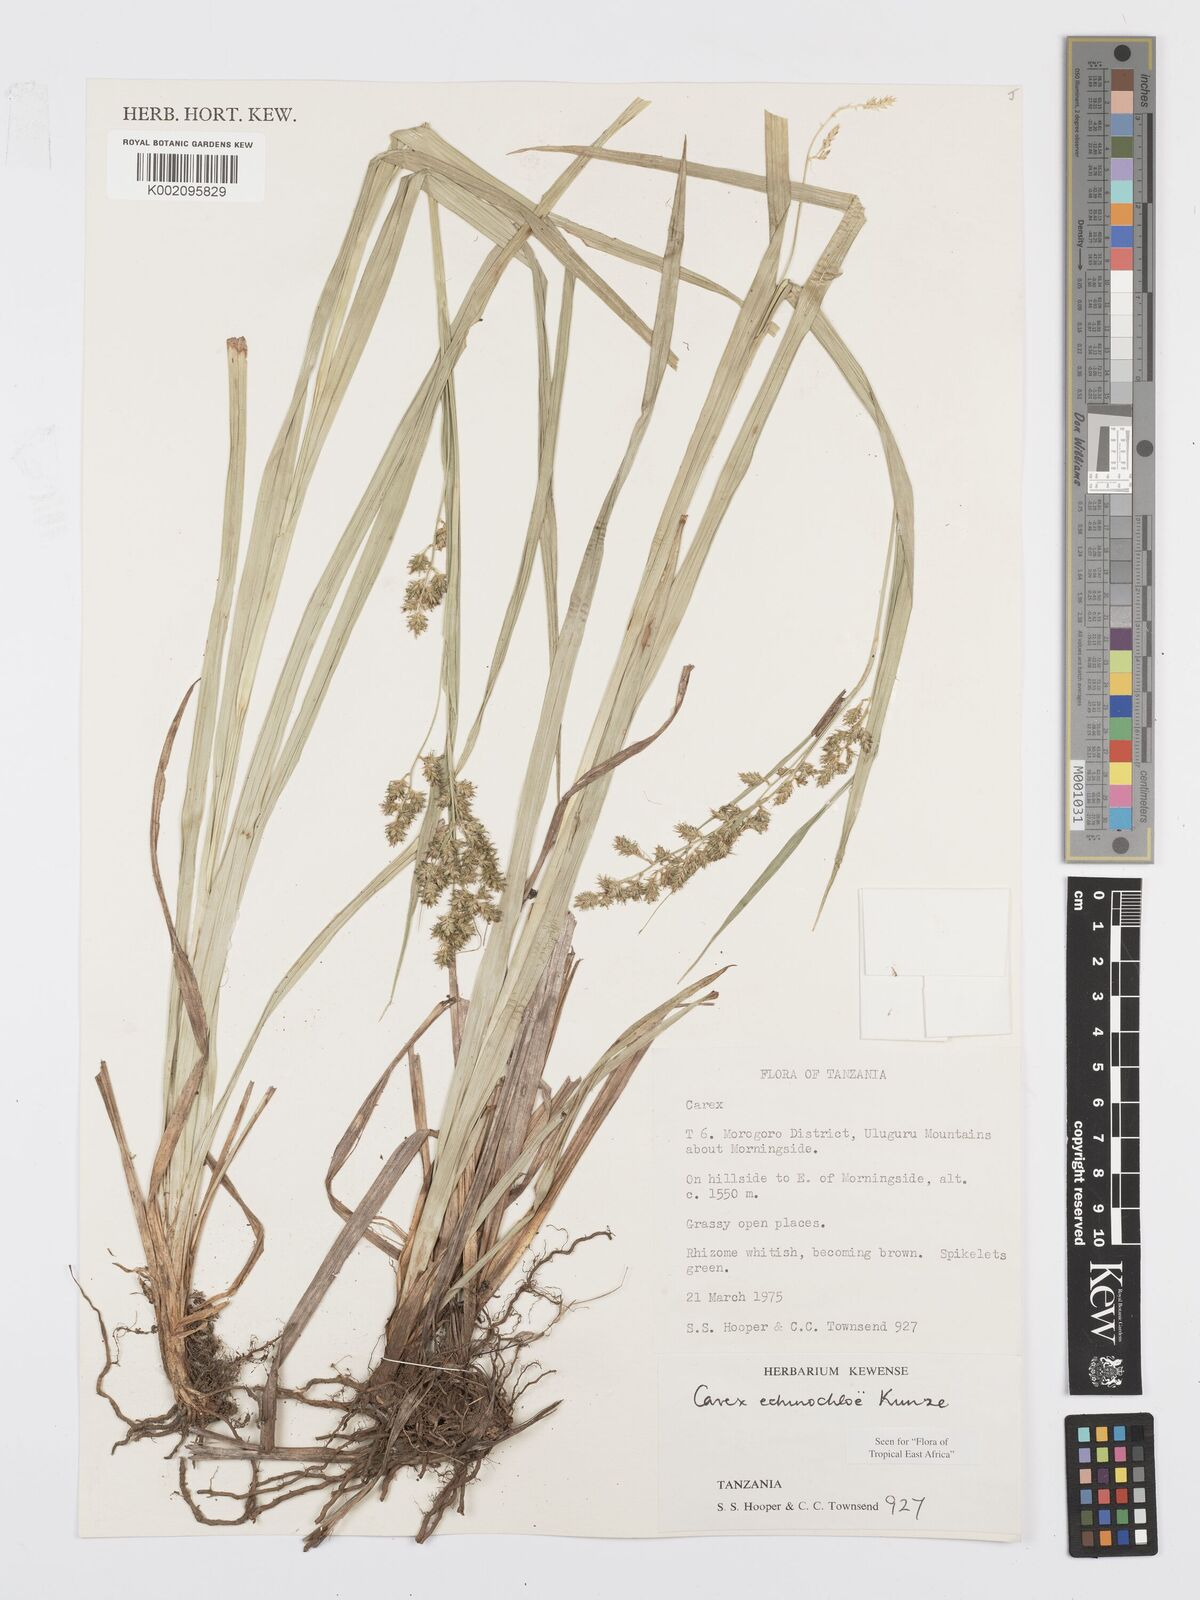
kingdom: Plantae
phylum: Tracheophyta
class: Liliopsida
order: Poales
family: Cyperaceae
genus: Carex
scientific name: Carex echinochloe
